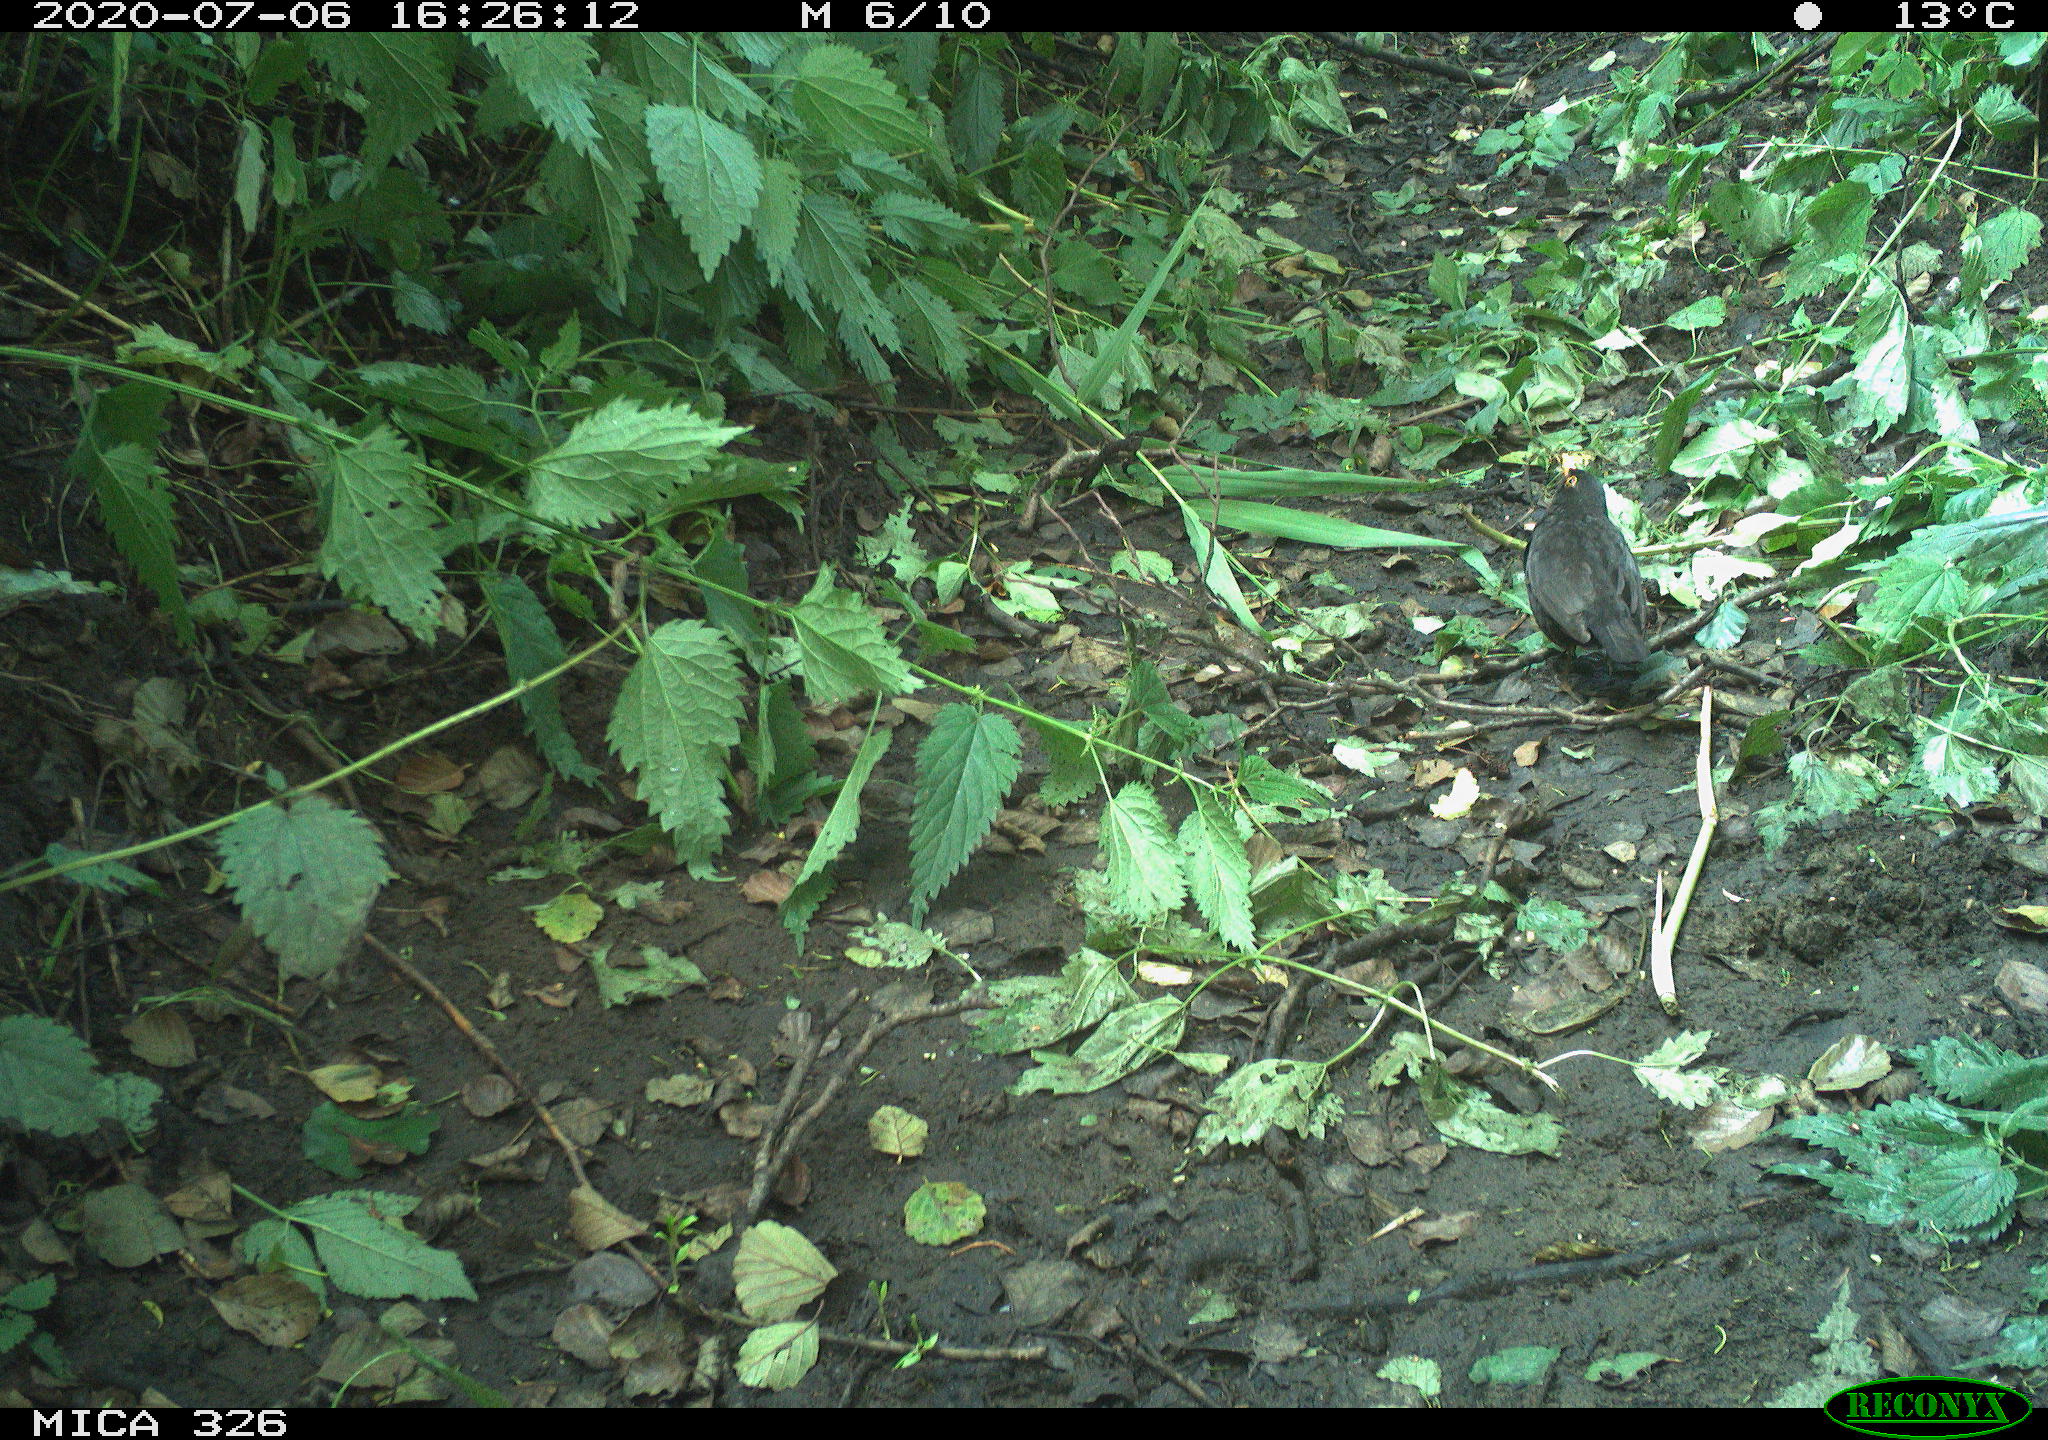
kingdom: Animalia
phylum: Chordata
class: Aves
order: Passeriformes
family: Turdidae
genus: Turdus
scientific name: Turdus merula
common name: Common blackbird
